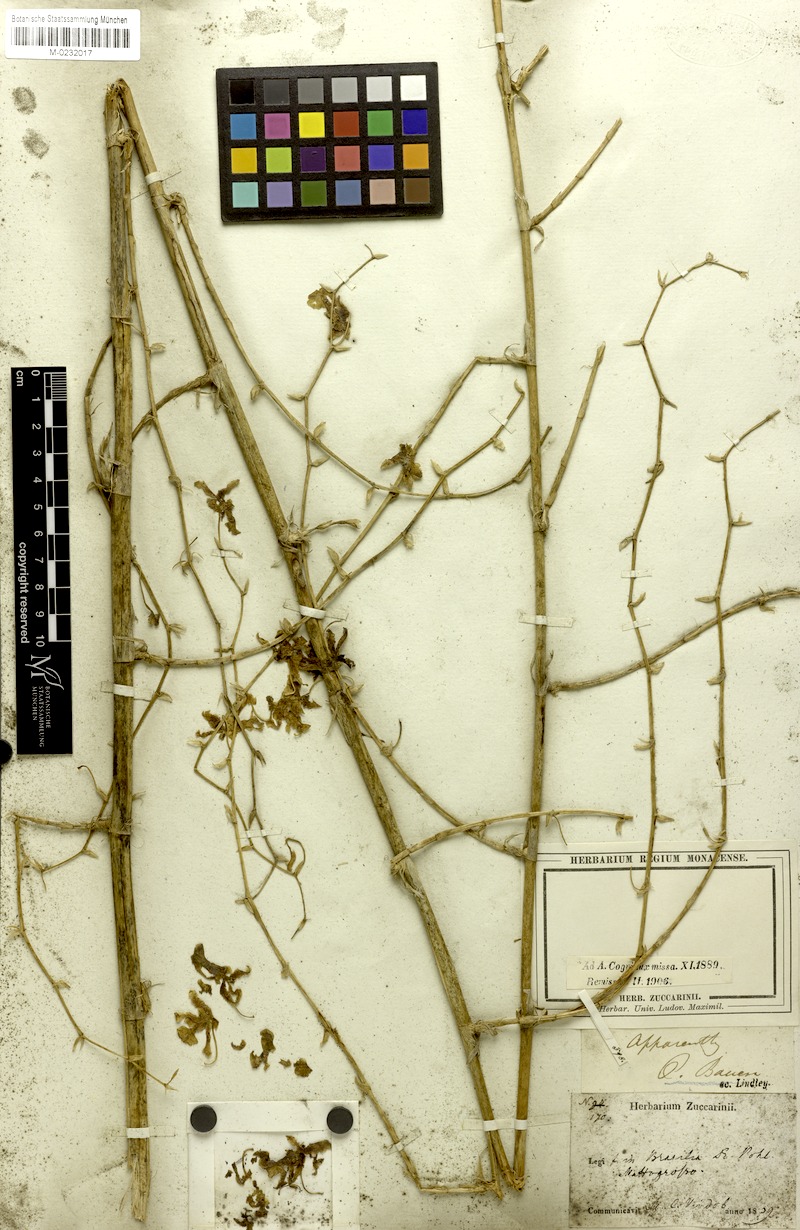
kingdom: Plantae
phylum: Tracheophyta
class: Liliopsida
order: Asparagales
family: Orchidaceae
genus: Oncidium
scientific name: Oncidium baueri
